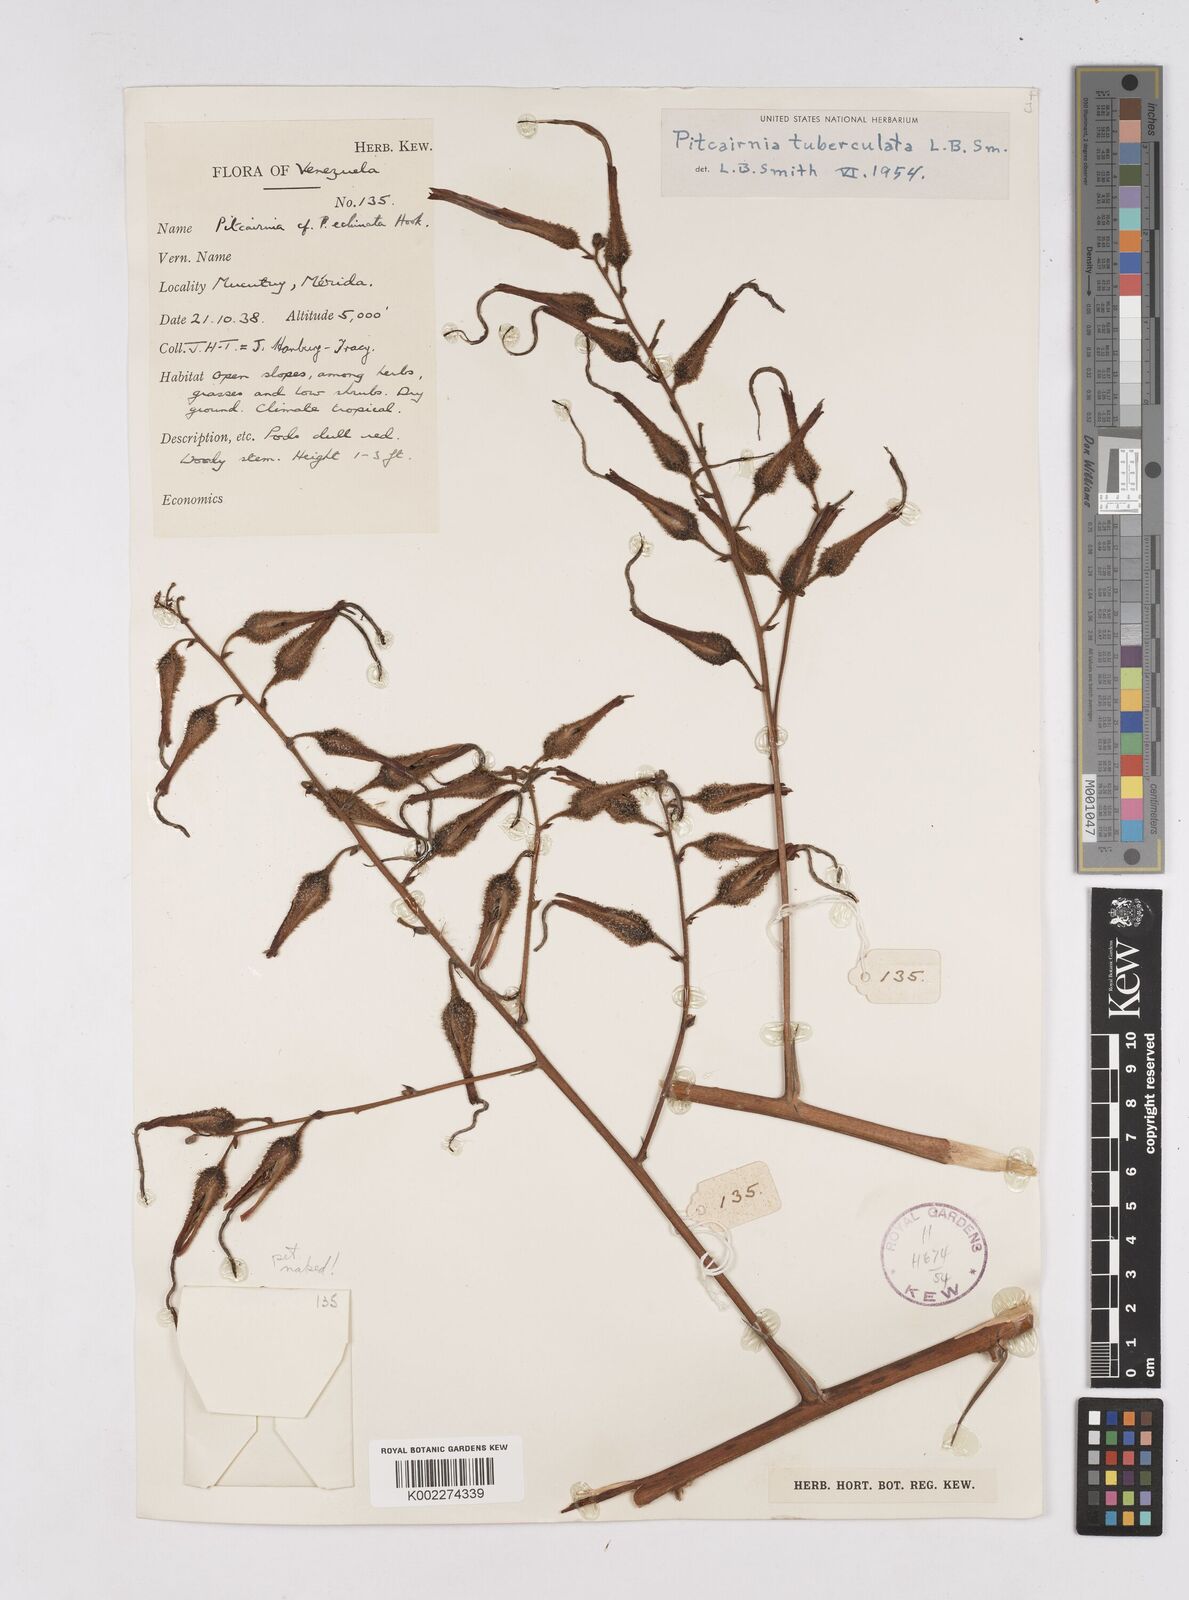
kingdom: Plantae
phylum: Tracheophyta
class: Liliopsida
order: Poales
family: Bromeliaceae
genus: Pitcairnia
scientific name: Pitcairnia tuberculata
